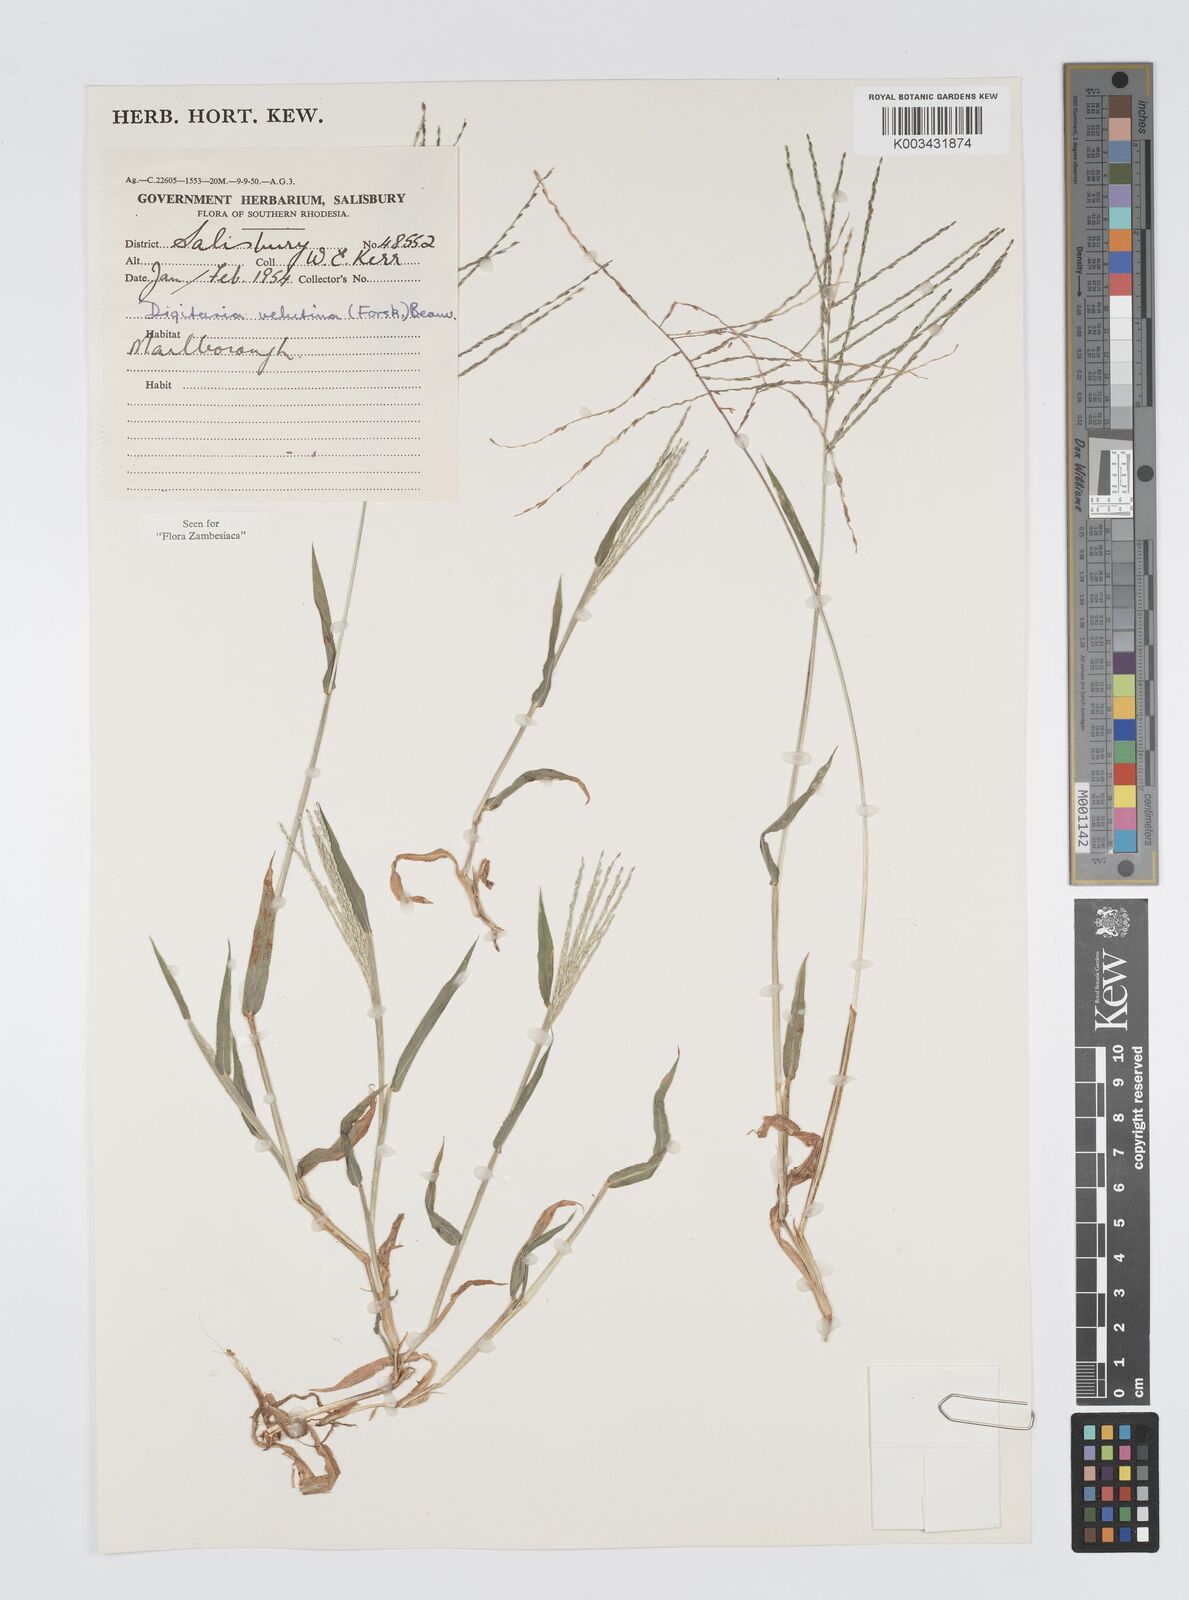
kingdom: Plantae
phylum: Tracheophyta
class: Liliopsida
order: Poales
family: Poaceae
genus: Digitaria
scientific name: Digitaria velutina
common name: Long-plume finger grass
